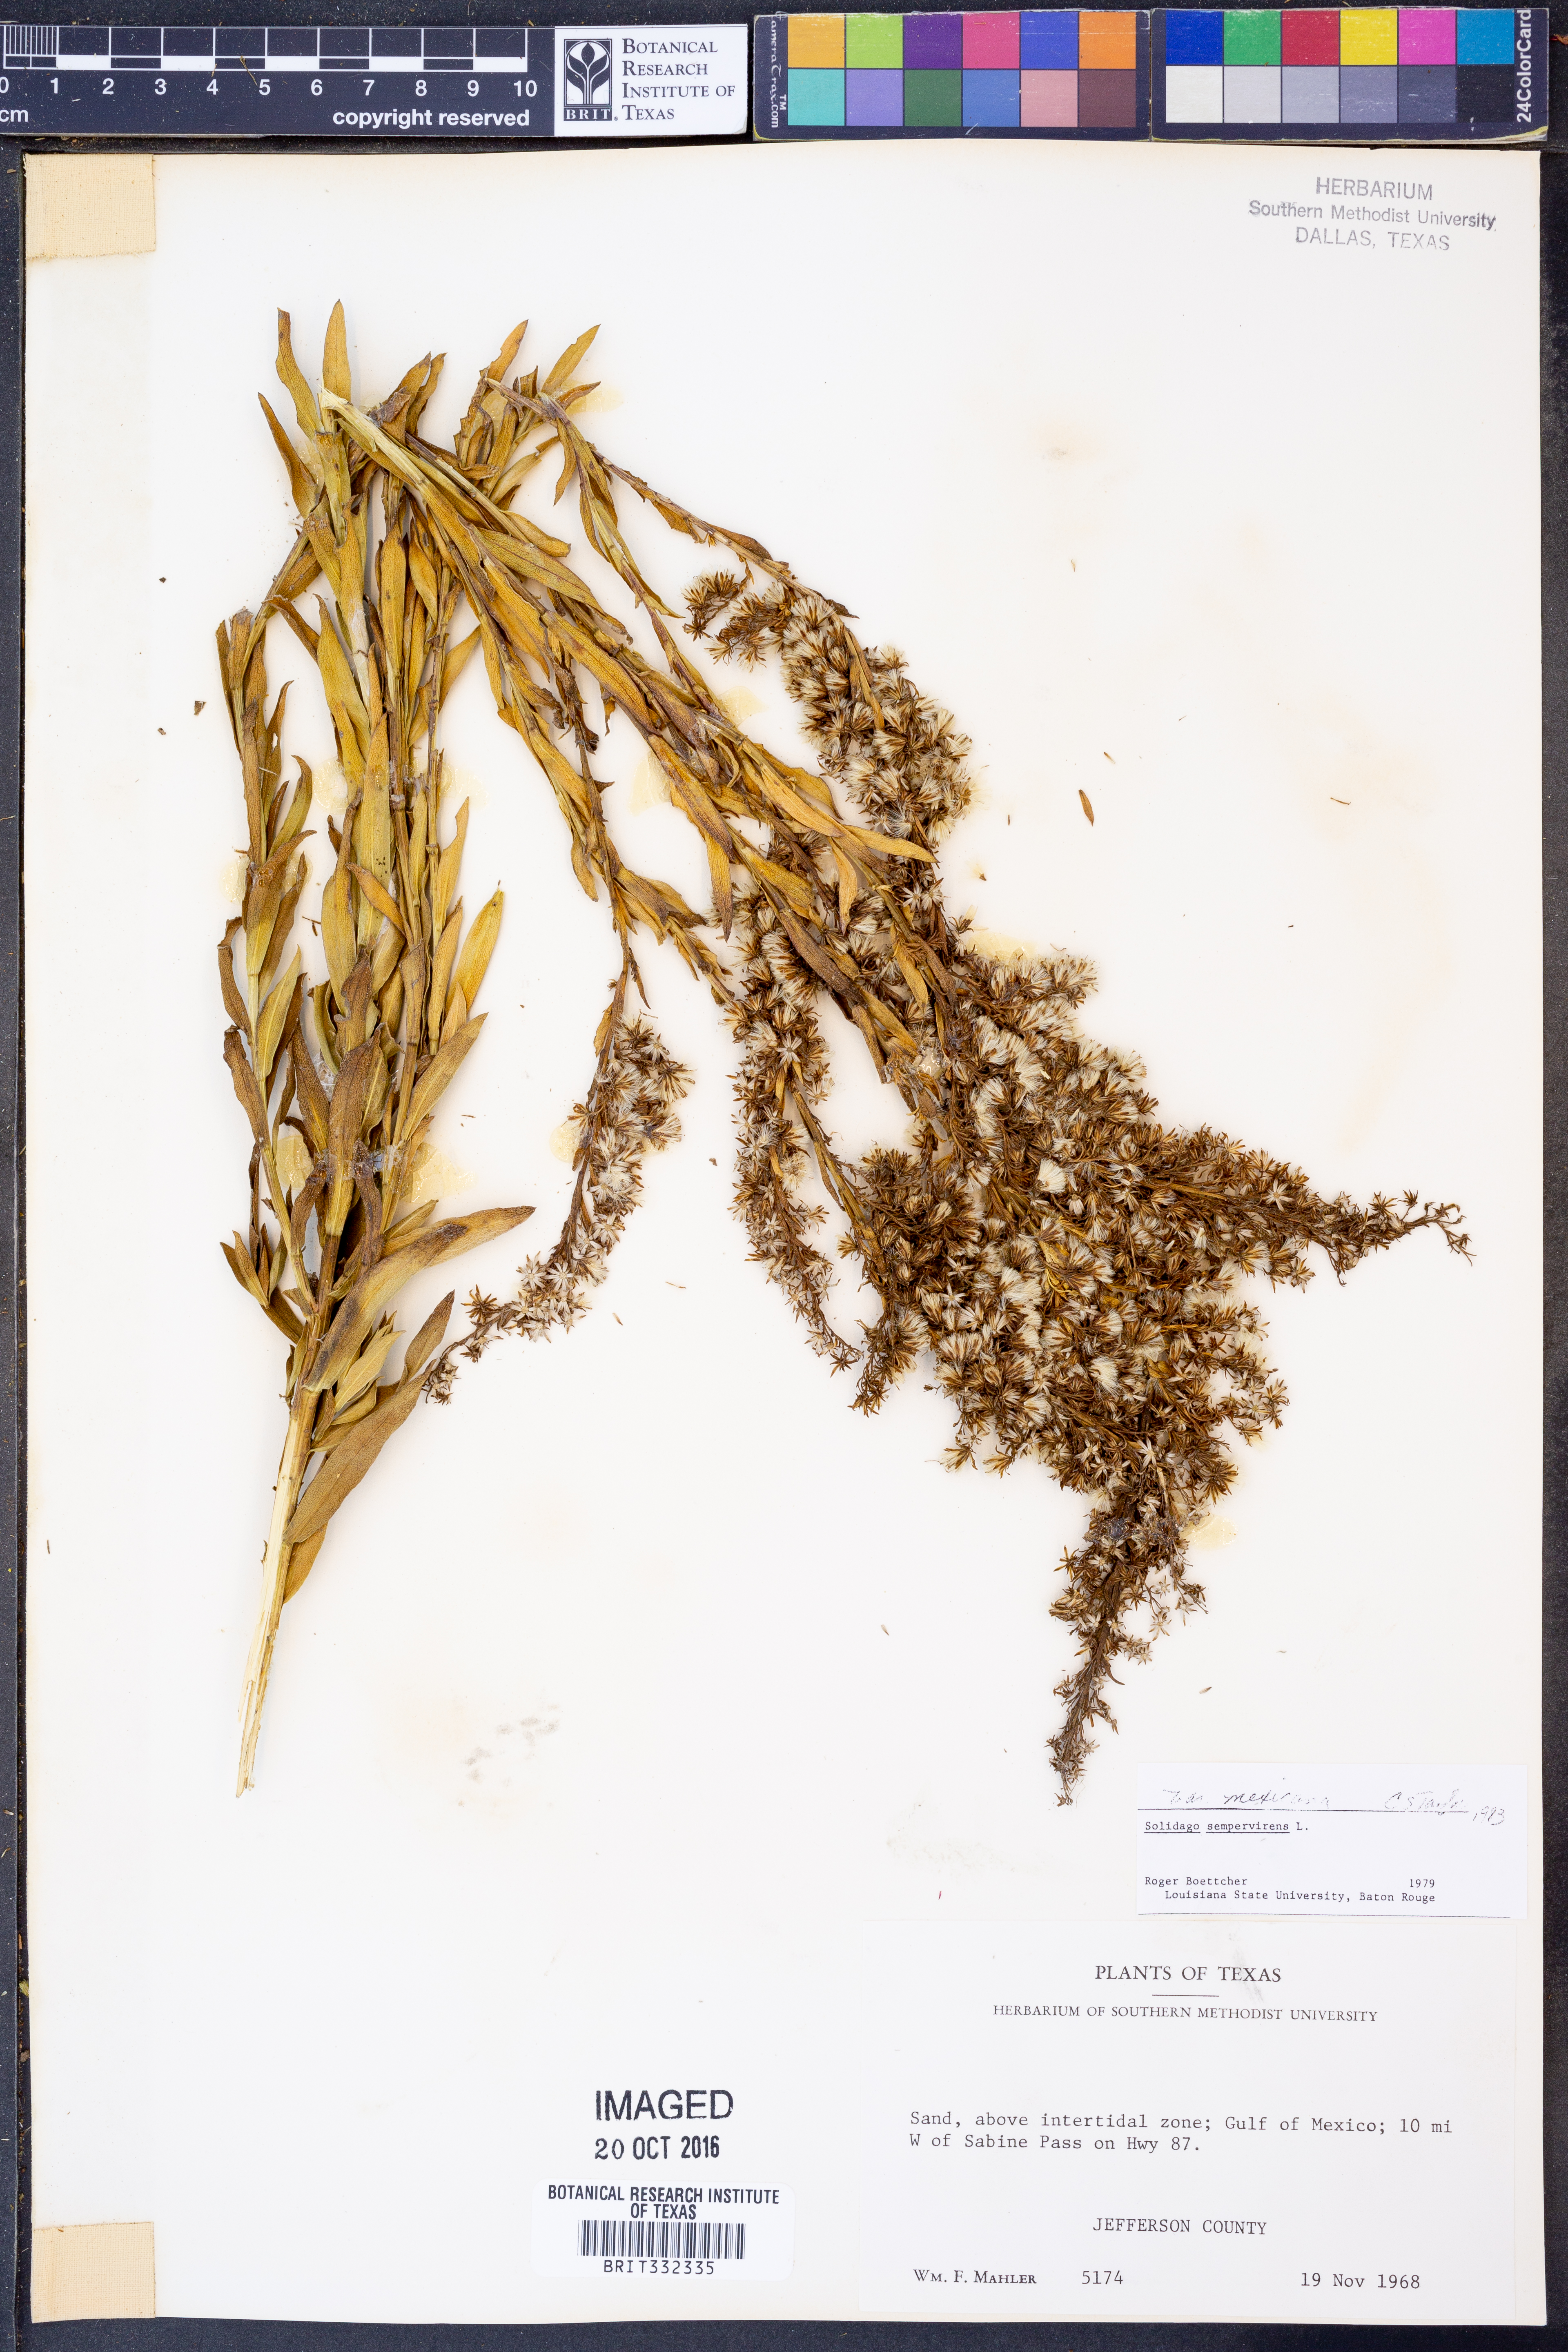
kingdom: Plantae
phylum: Tracheophyta
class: Magnoliopsida
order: Asterales
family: Asteraceae
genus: Solidago
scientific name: Solidago mexicana
